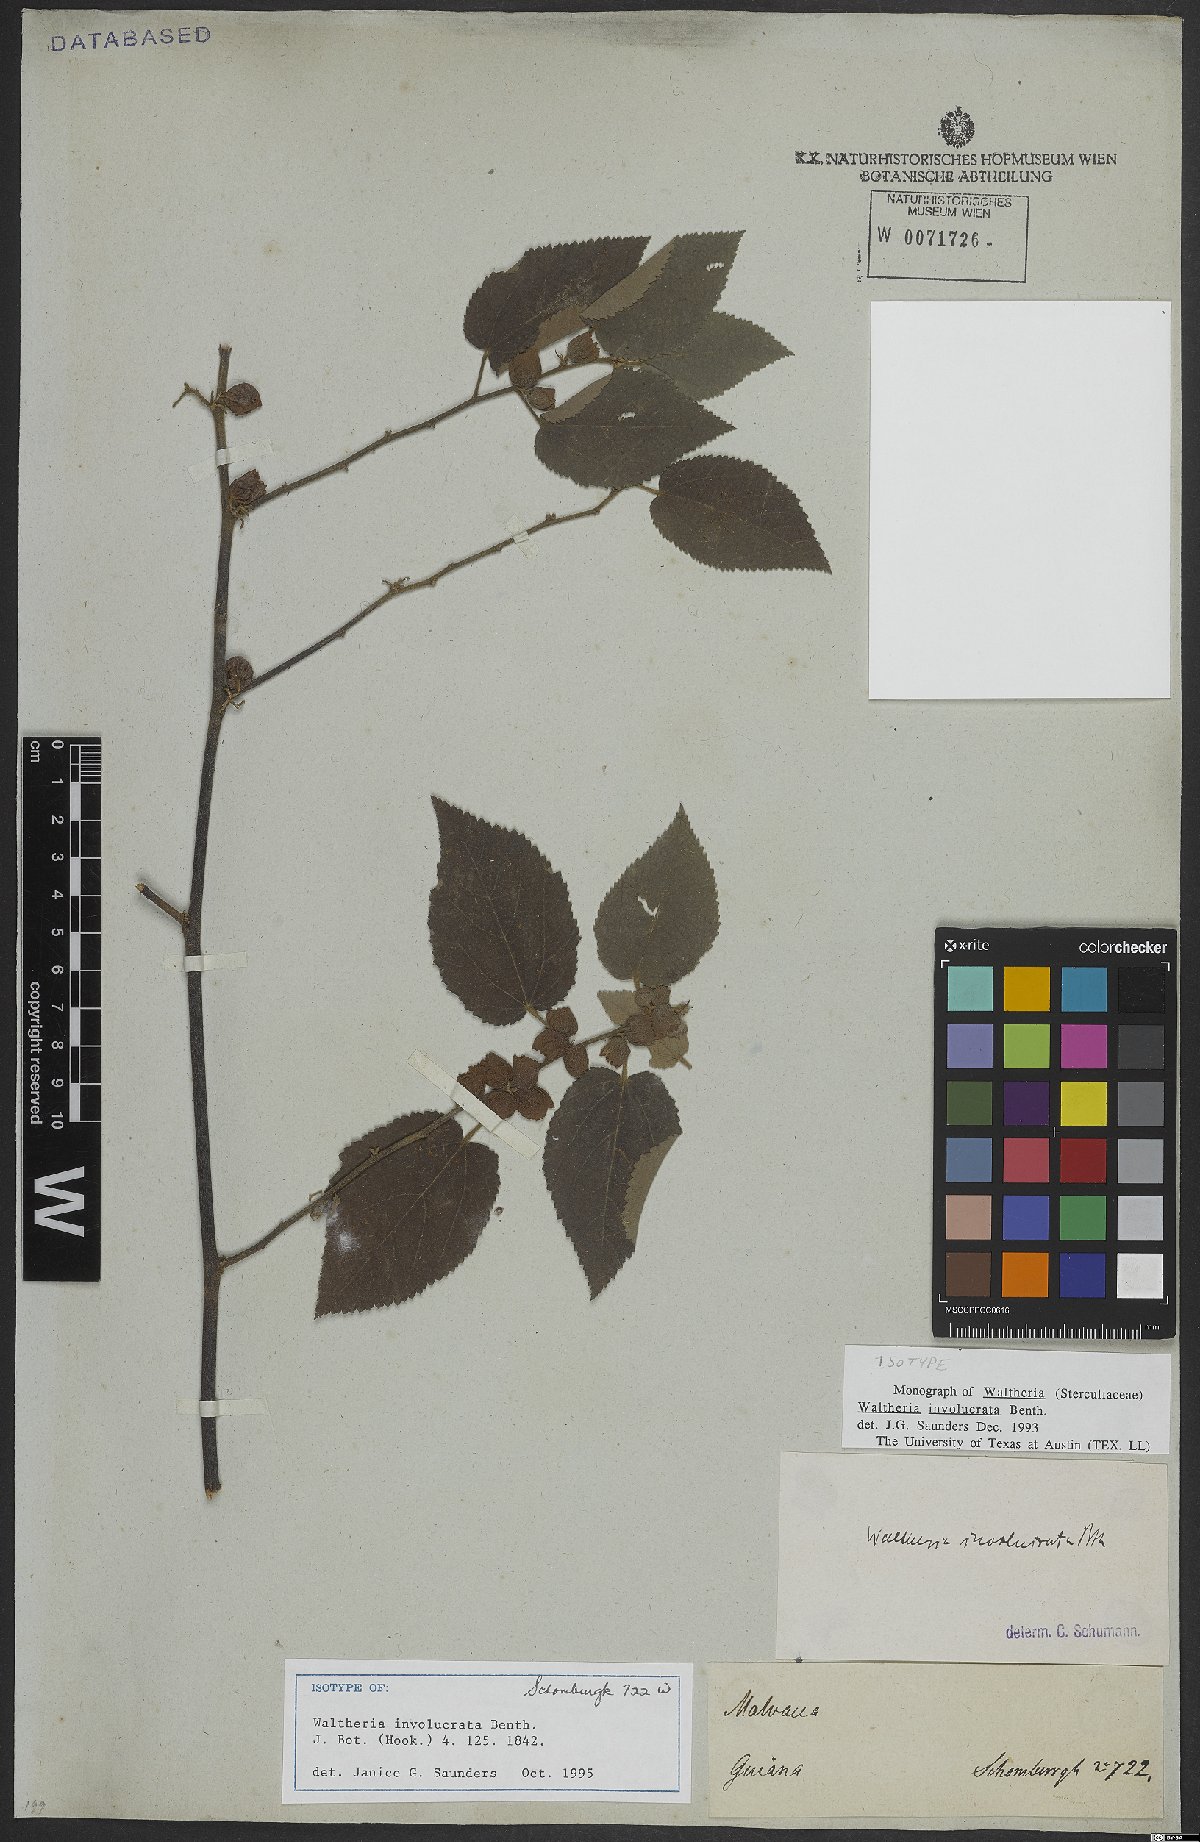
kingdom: Plantae
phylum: Tracheophyta
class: Magnoliopsida
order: Malvales
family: Malvaceae
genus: Waltheria
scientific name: Waltheria involucrata
